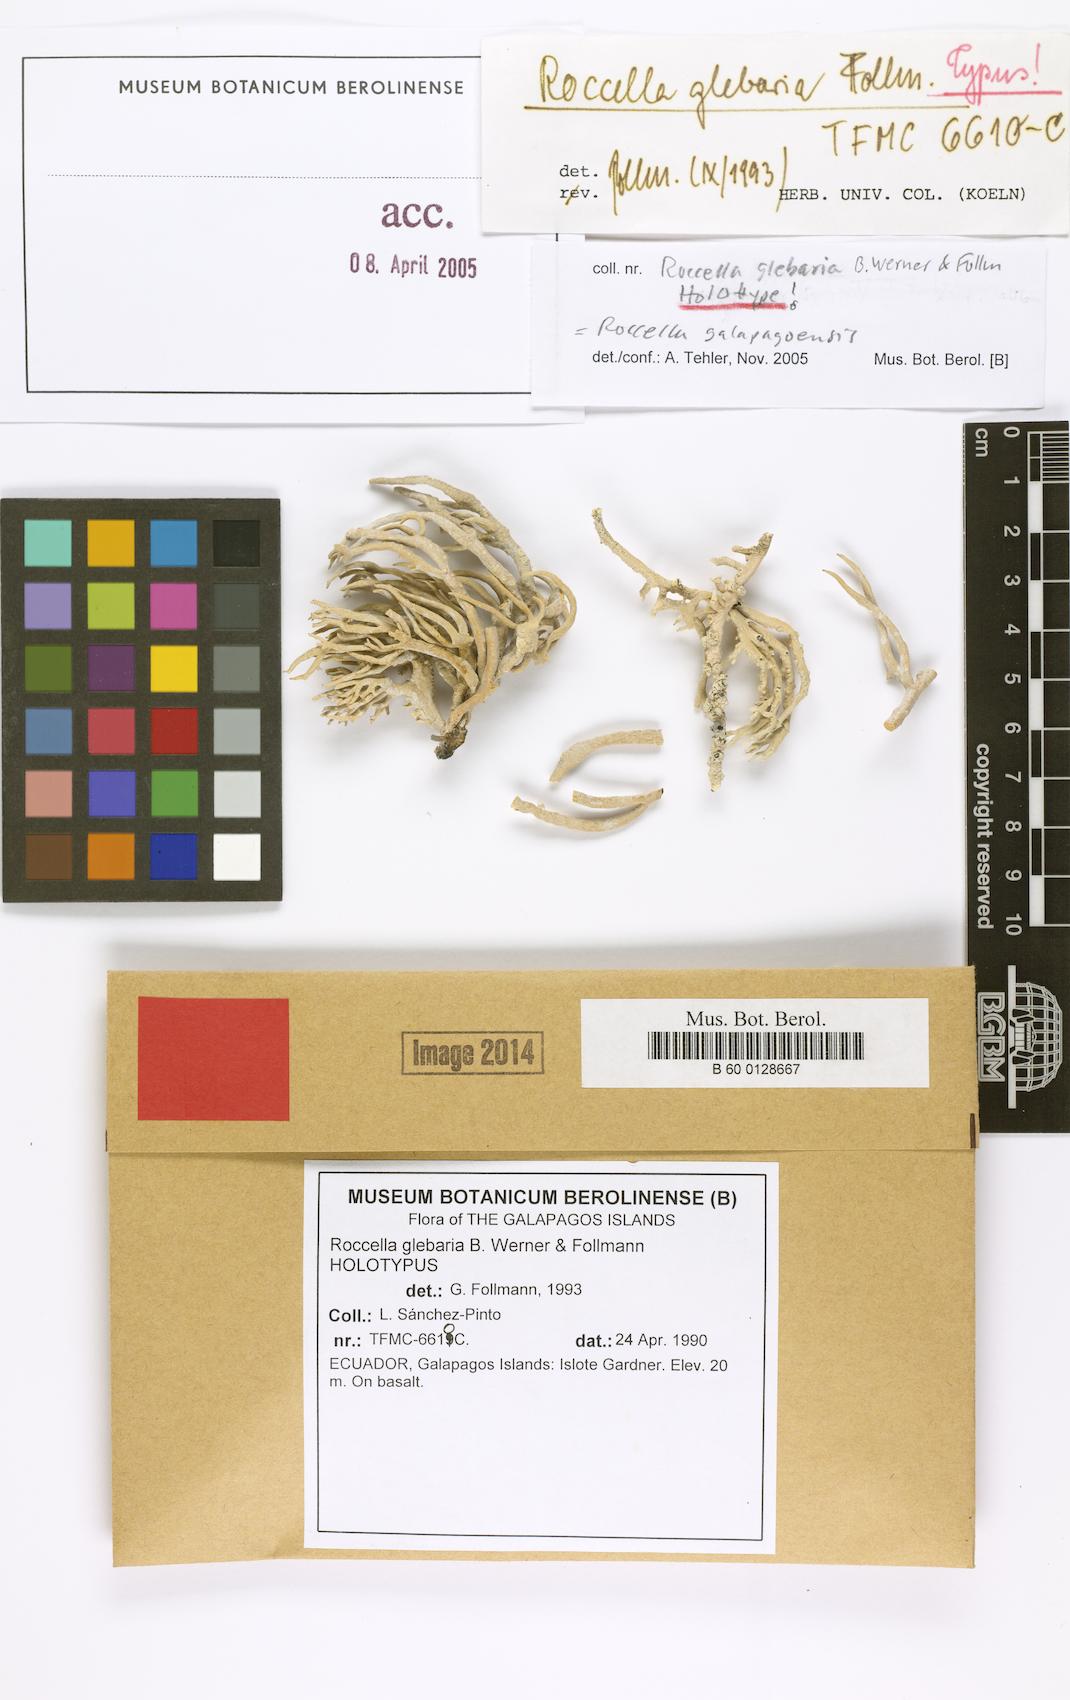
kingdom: Fungi
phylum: Ascomycota
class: Arthoniomycetes
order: Arthoniales
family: Roccellaceae
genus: Roccella
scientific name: Roccella glebaria
